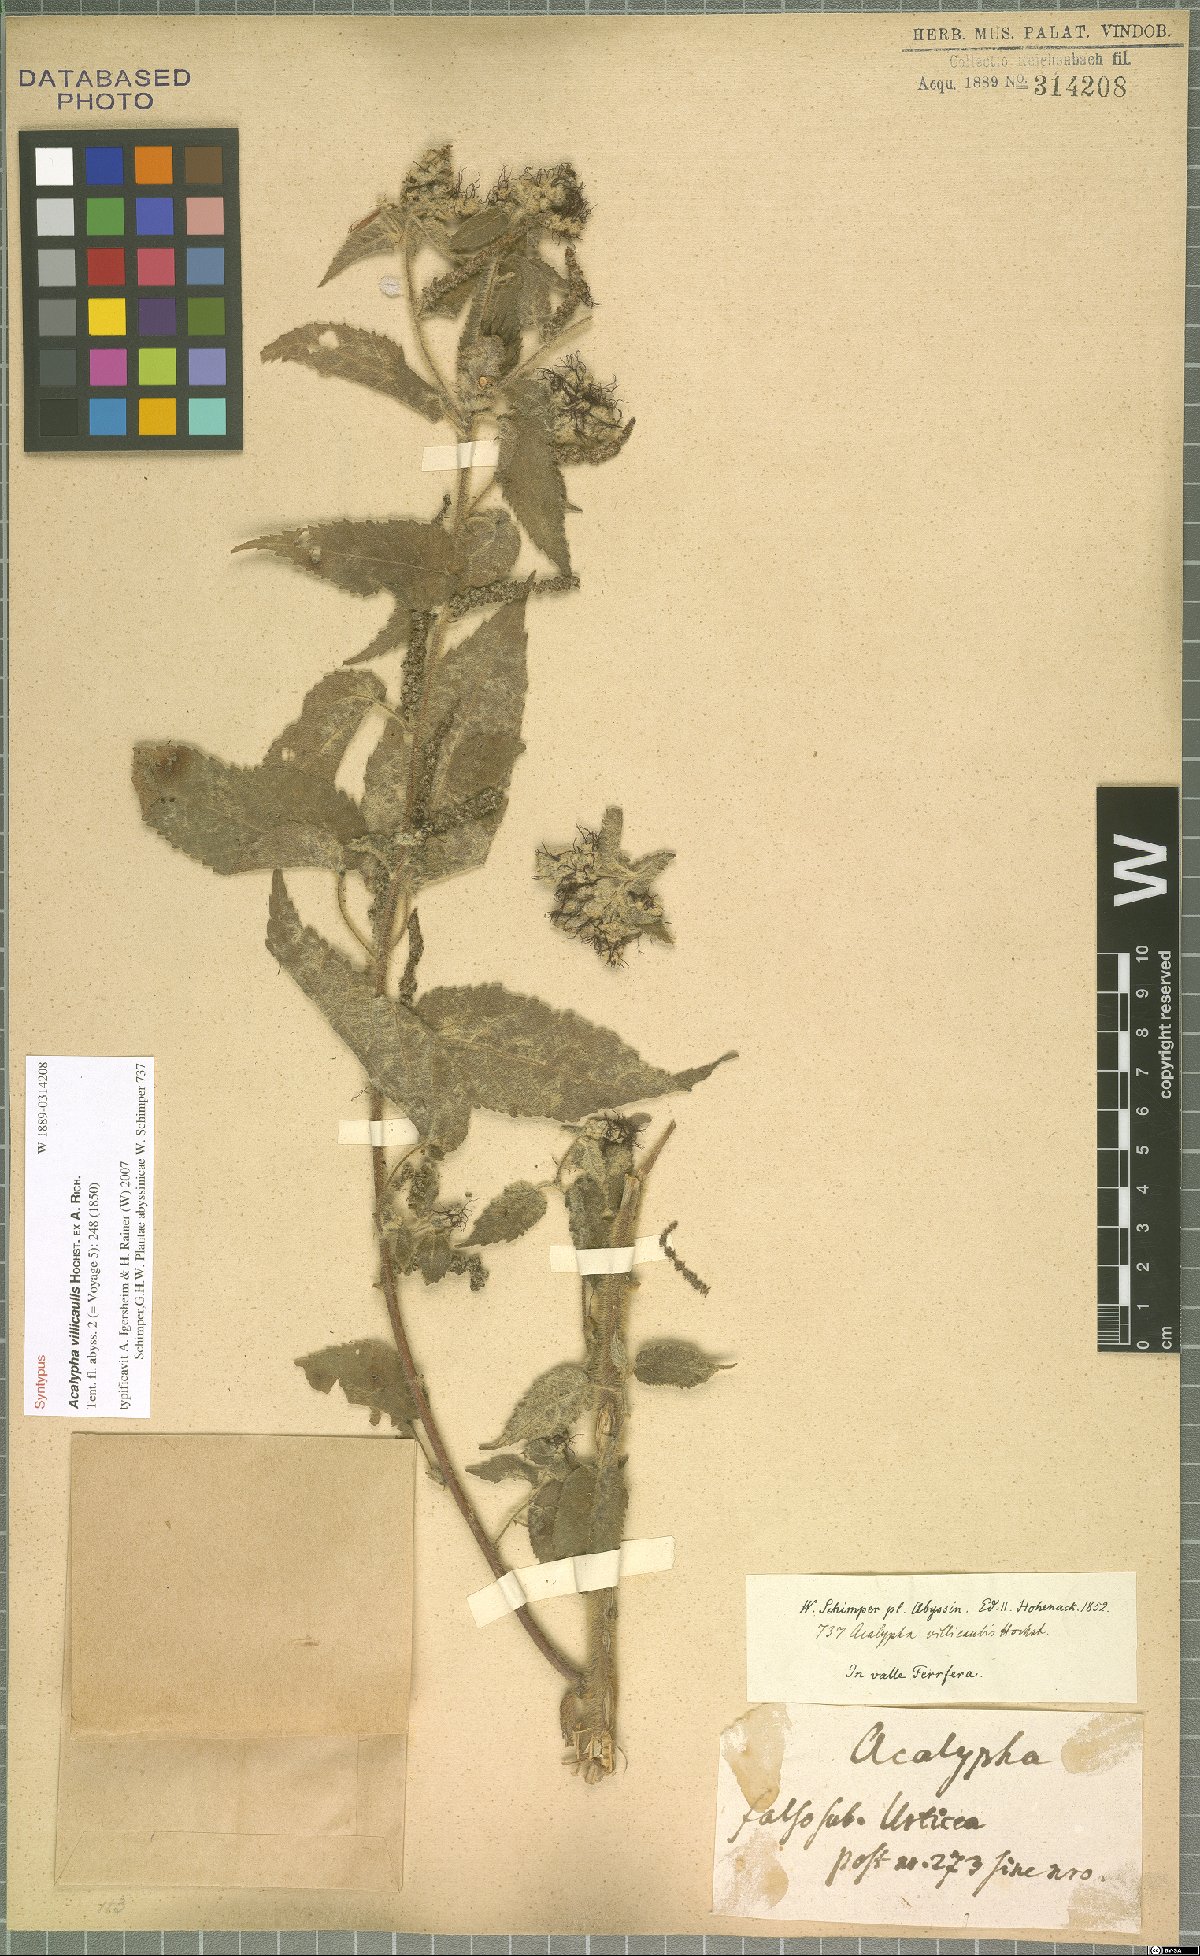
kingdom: Plantae
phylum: Tracheophyta
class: Magnoliopsida
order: Malpighiales
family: Euphorbiaceae
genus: Acalypha
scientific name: Acalypha petiolaris
